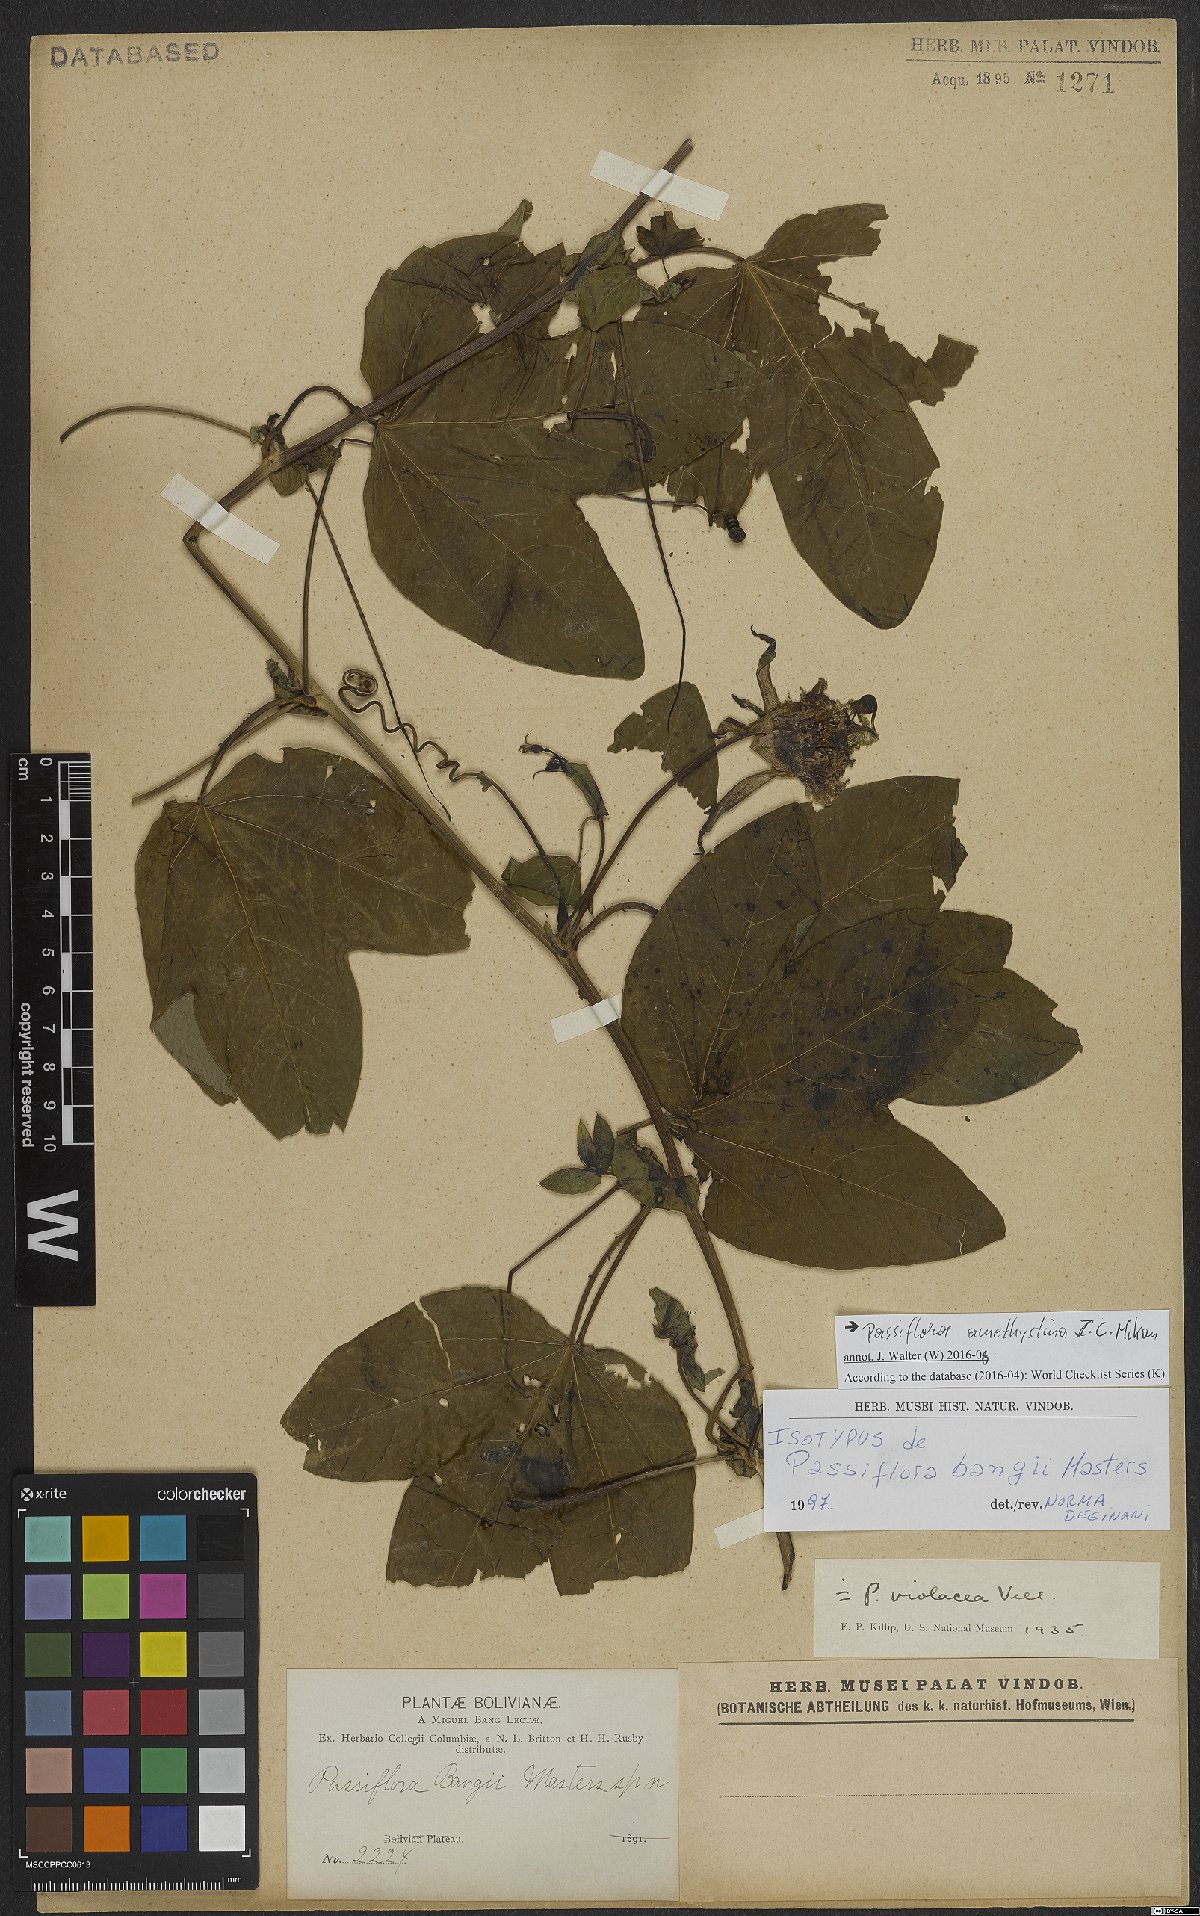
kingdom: Plantae
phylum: Tracheophyta
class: Magnoliopsida
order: Malpighiales
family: Passifloraceae
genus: Passiflora
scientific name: Passiflora amethystina
